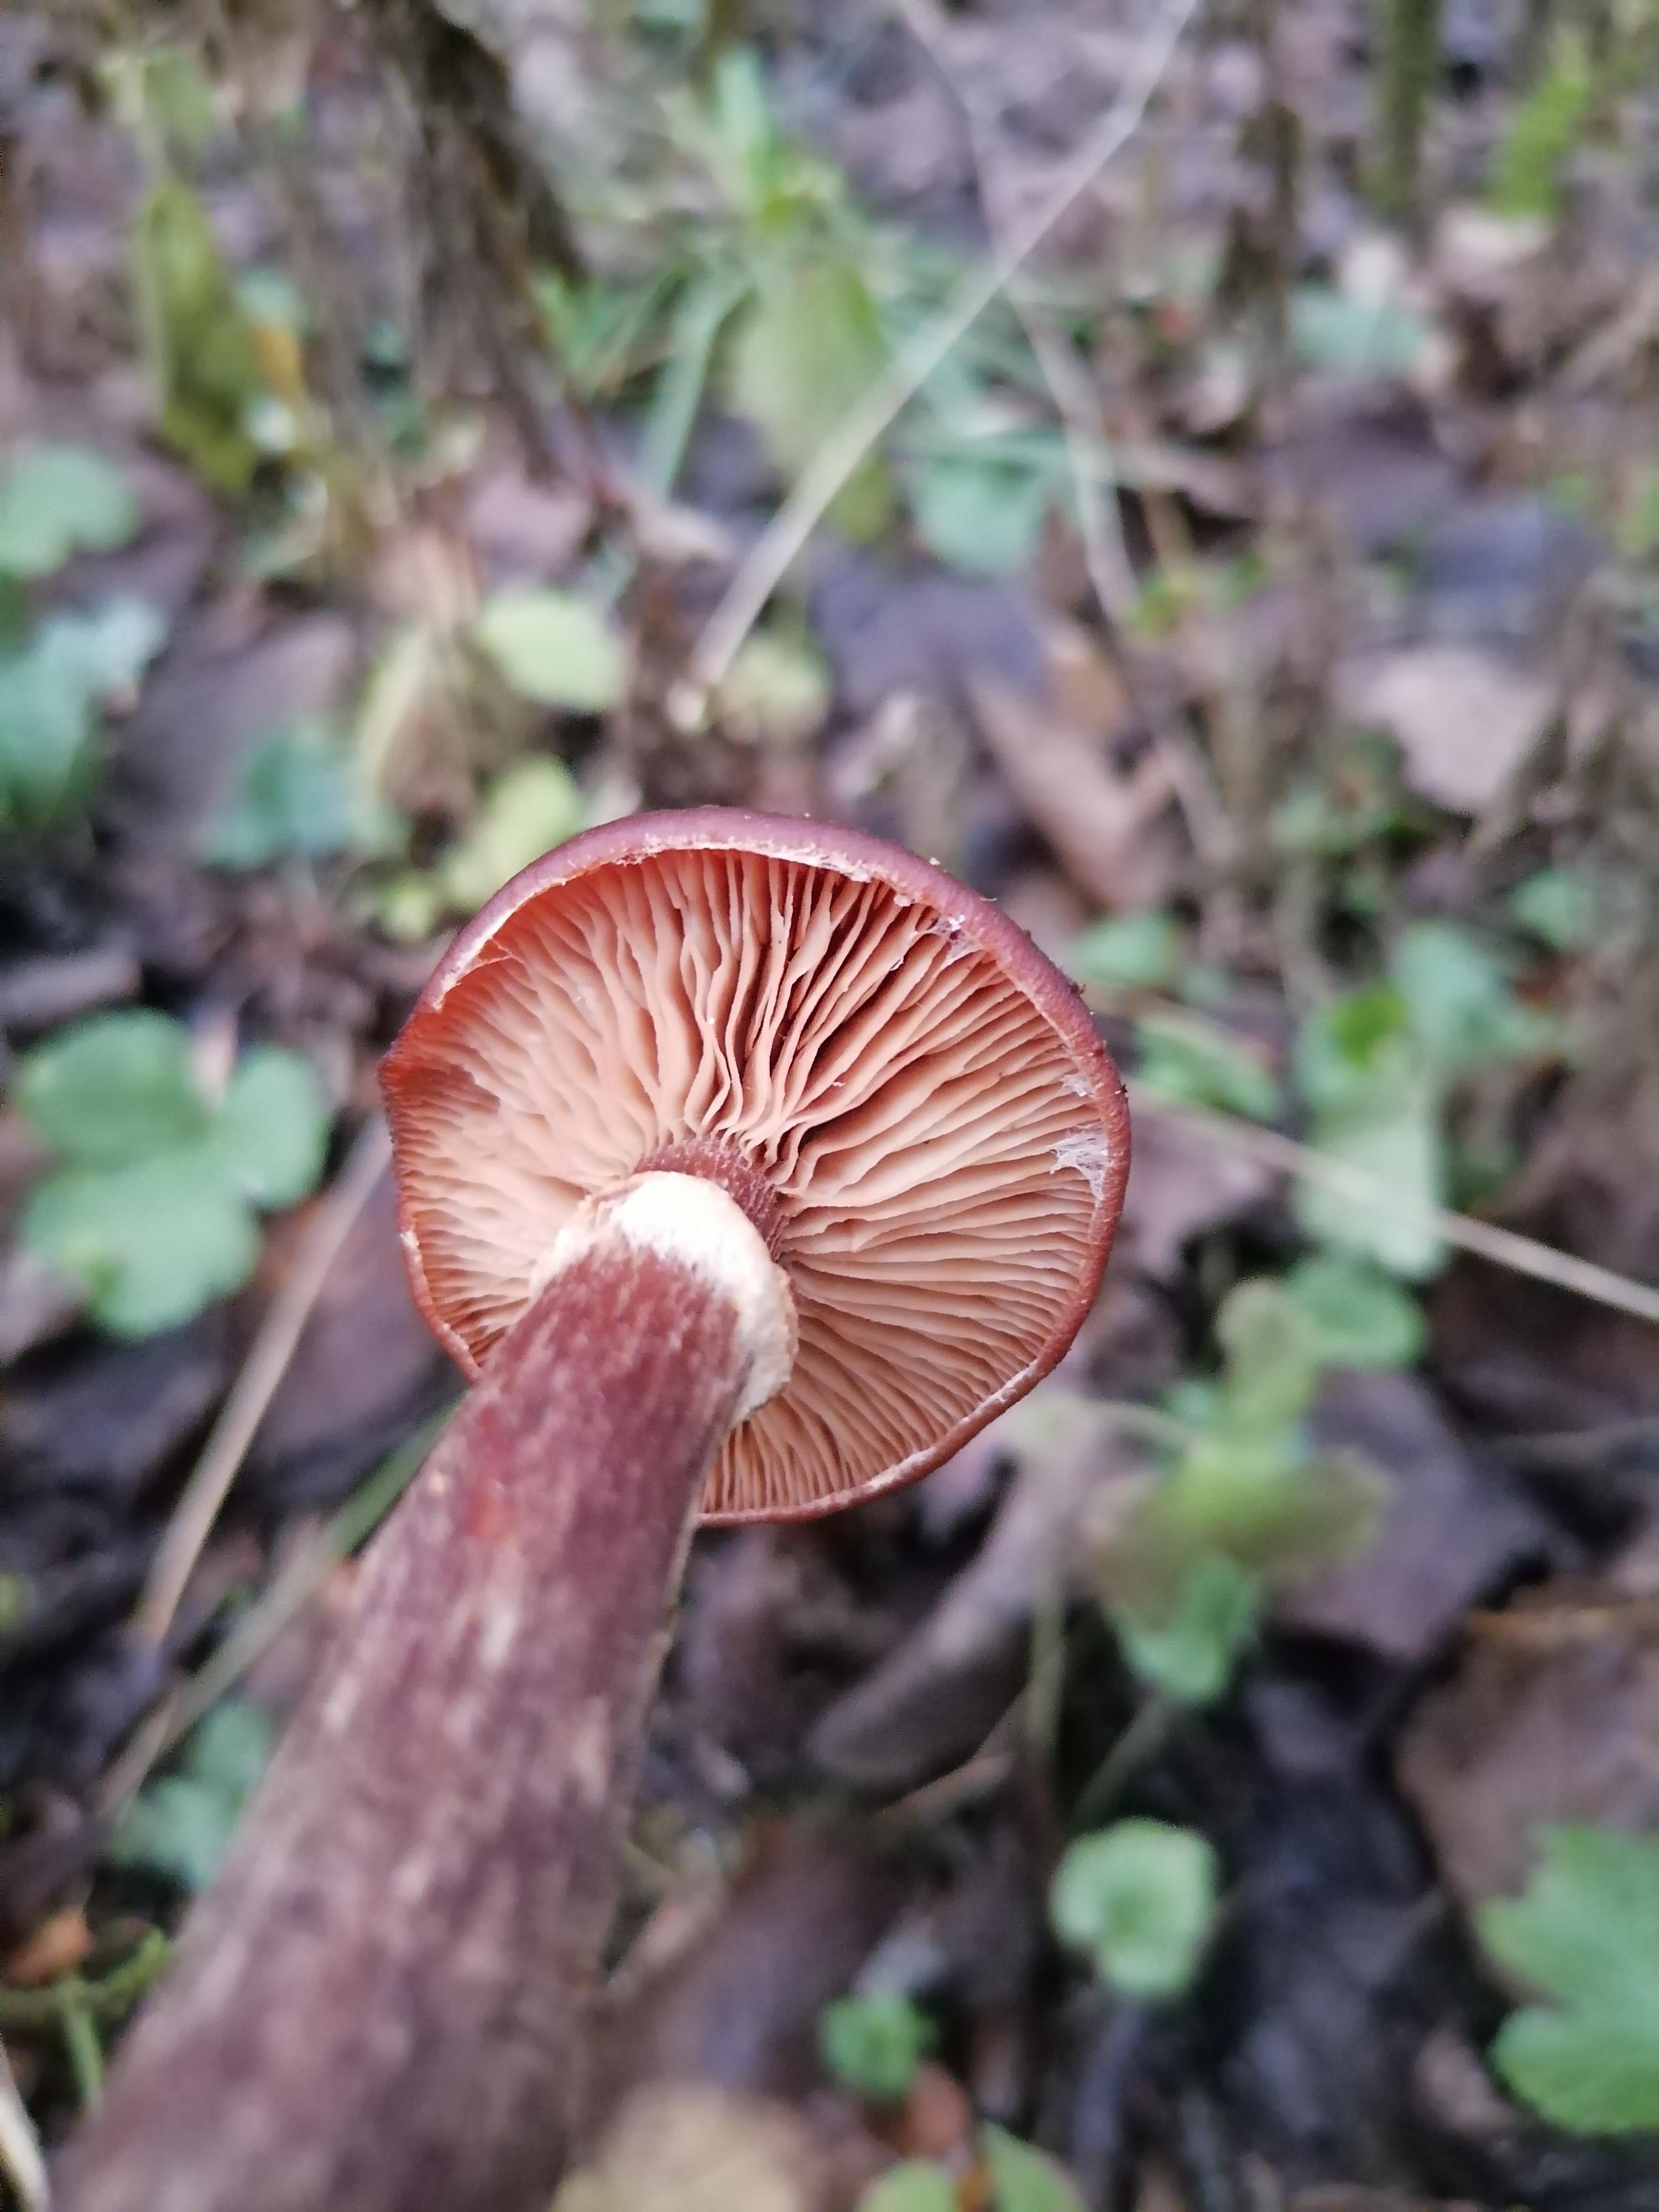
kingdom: Fungi
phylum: Basidiomycota
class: Agaricomycetes
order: Agaricales
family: Physalacriaceae
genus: Armillaria
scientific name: Armillaria lutea
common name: køllestokket honningsvamp
